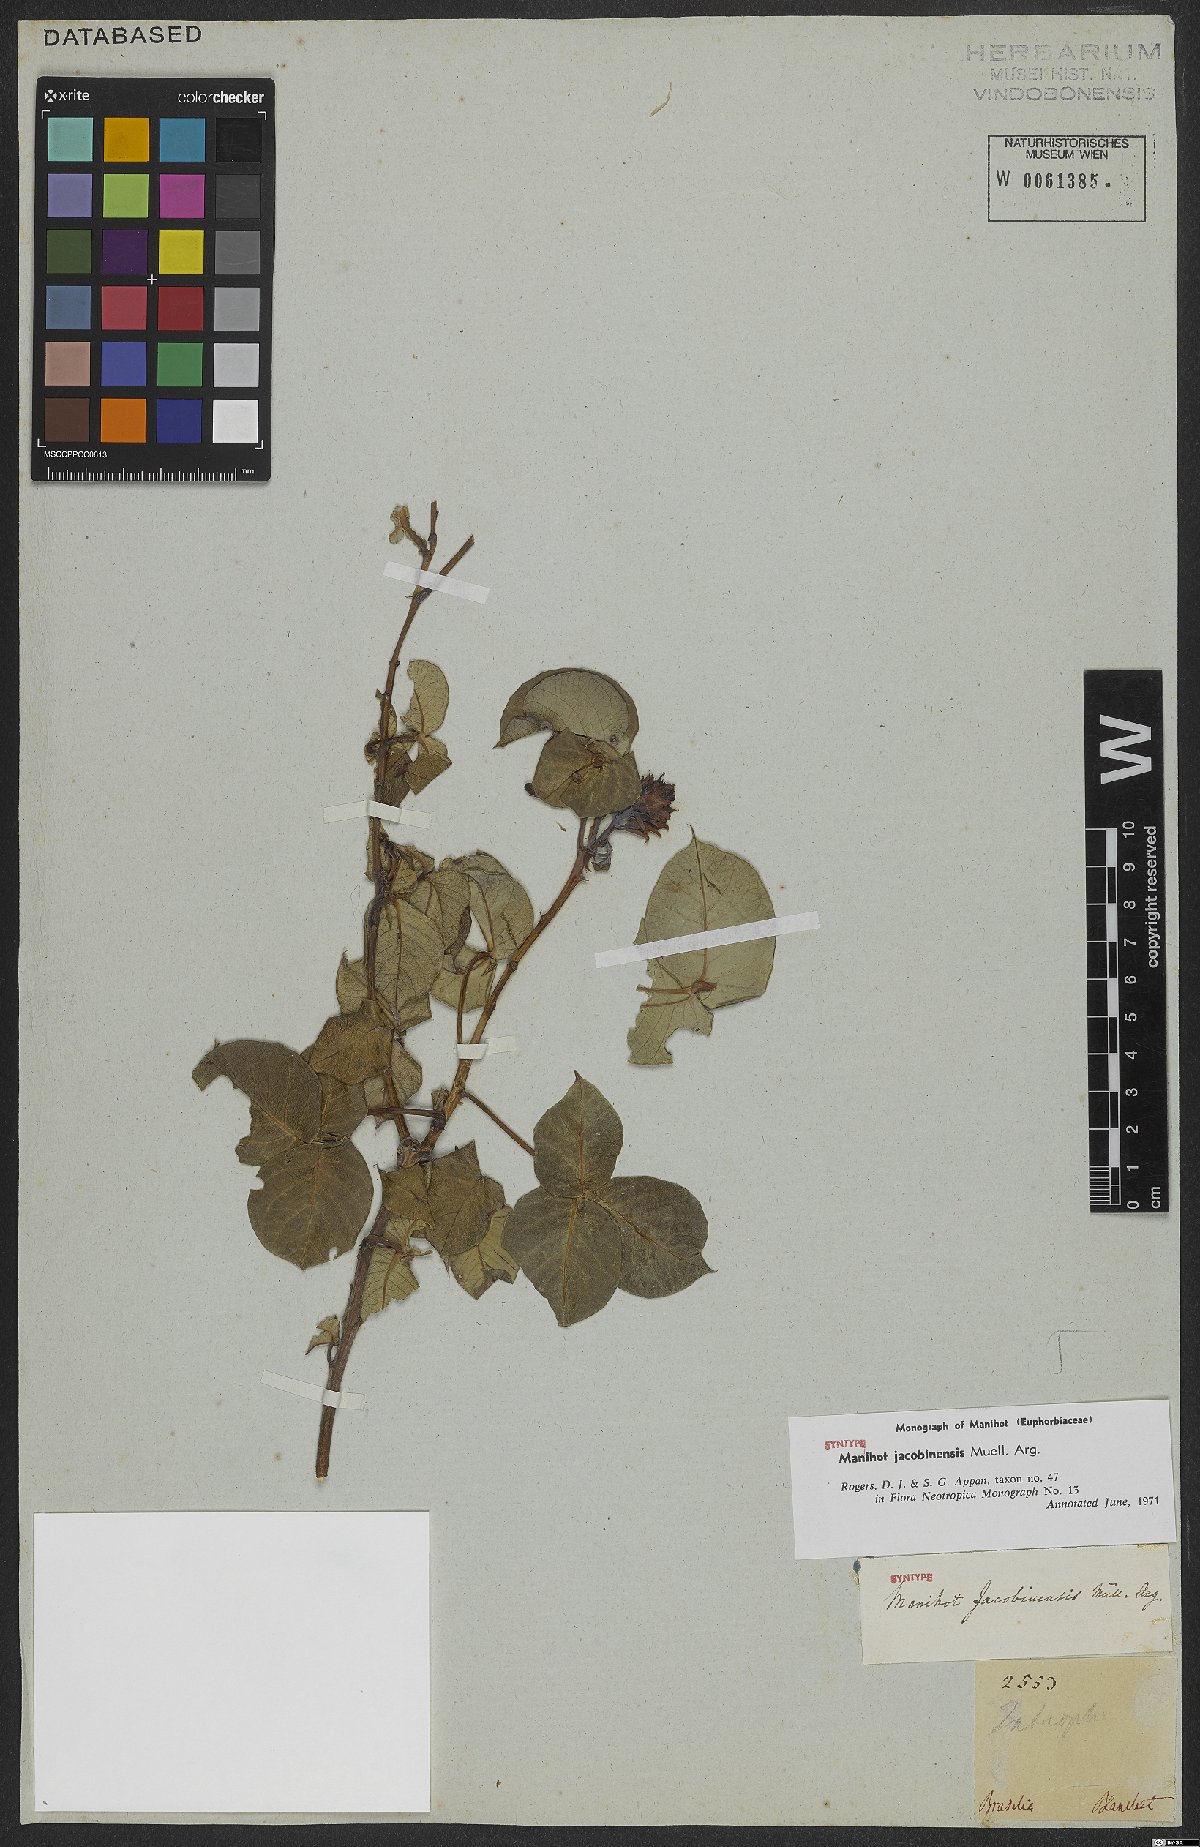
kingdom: Plantae
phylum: Tracheophyta
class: Magnoliopsida
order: Malpighiales
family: Euphorbiaceae
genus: Manihot
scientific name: Manihot jacobinensis
